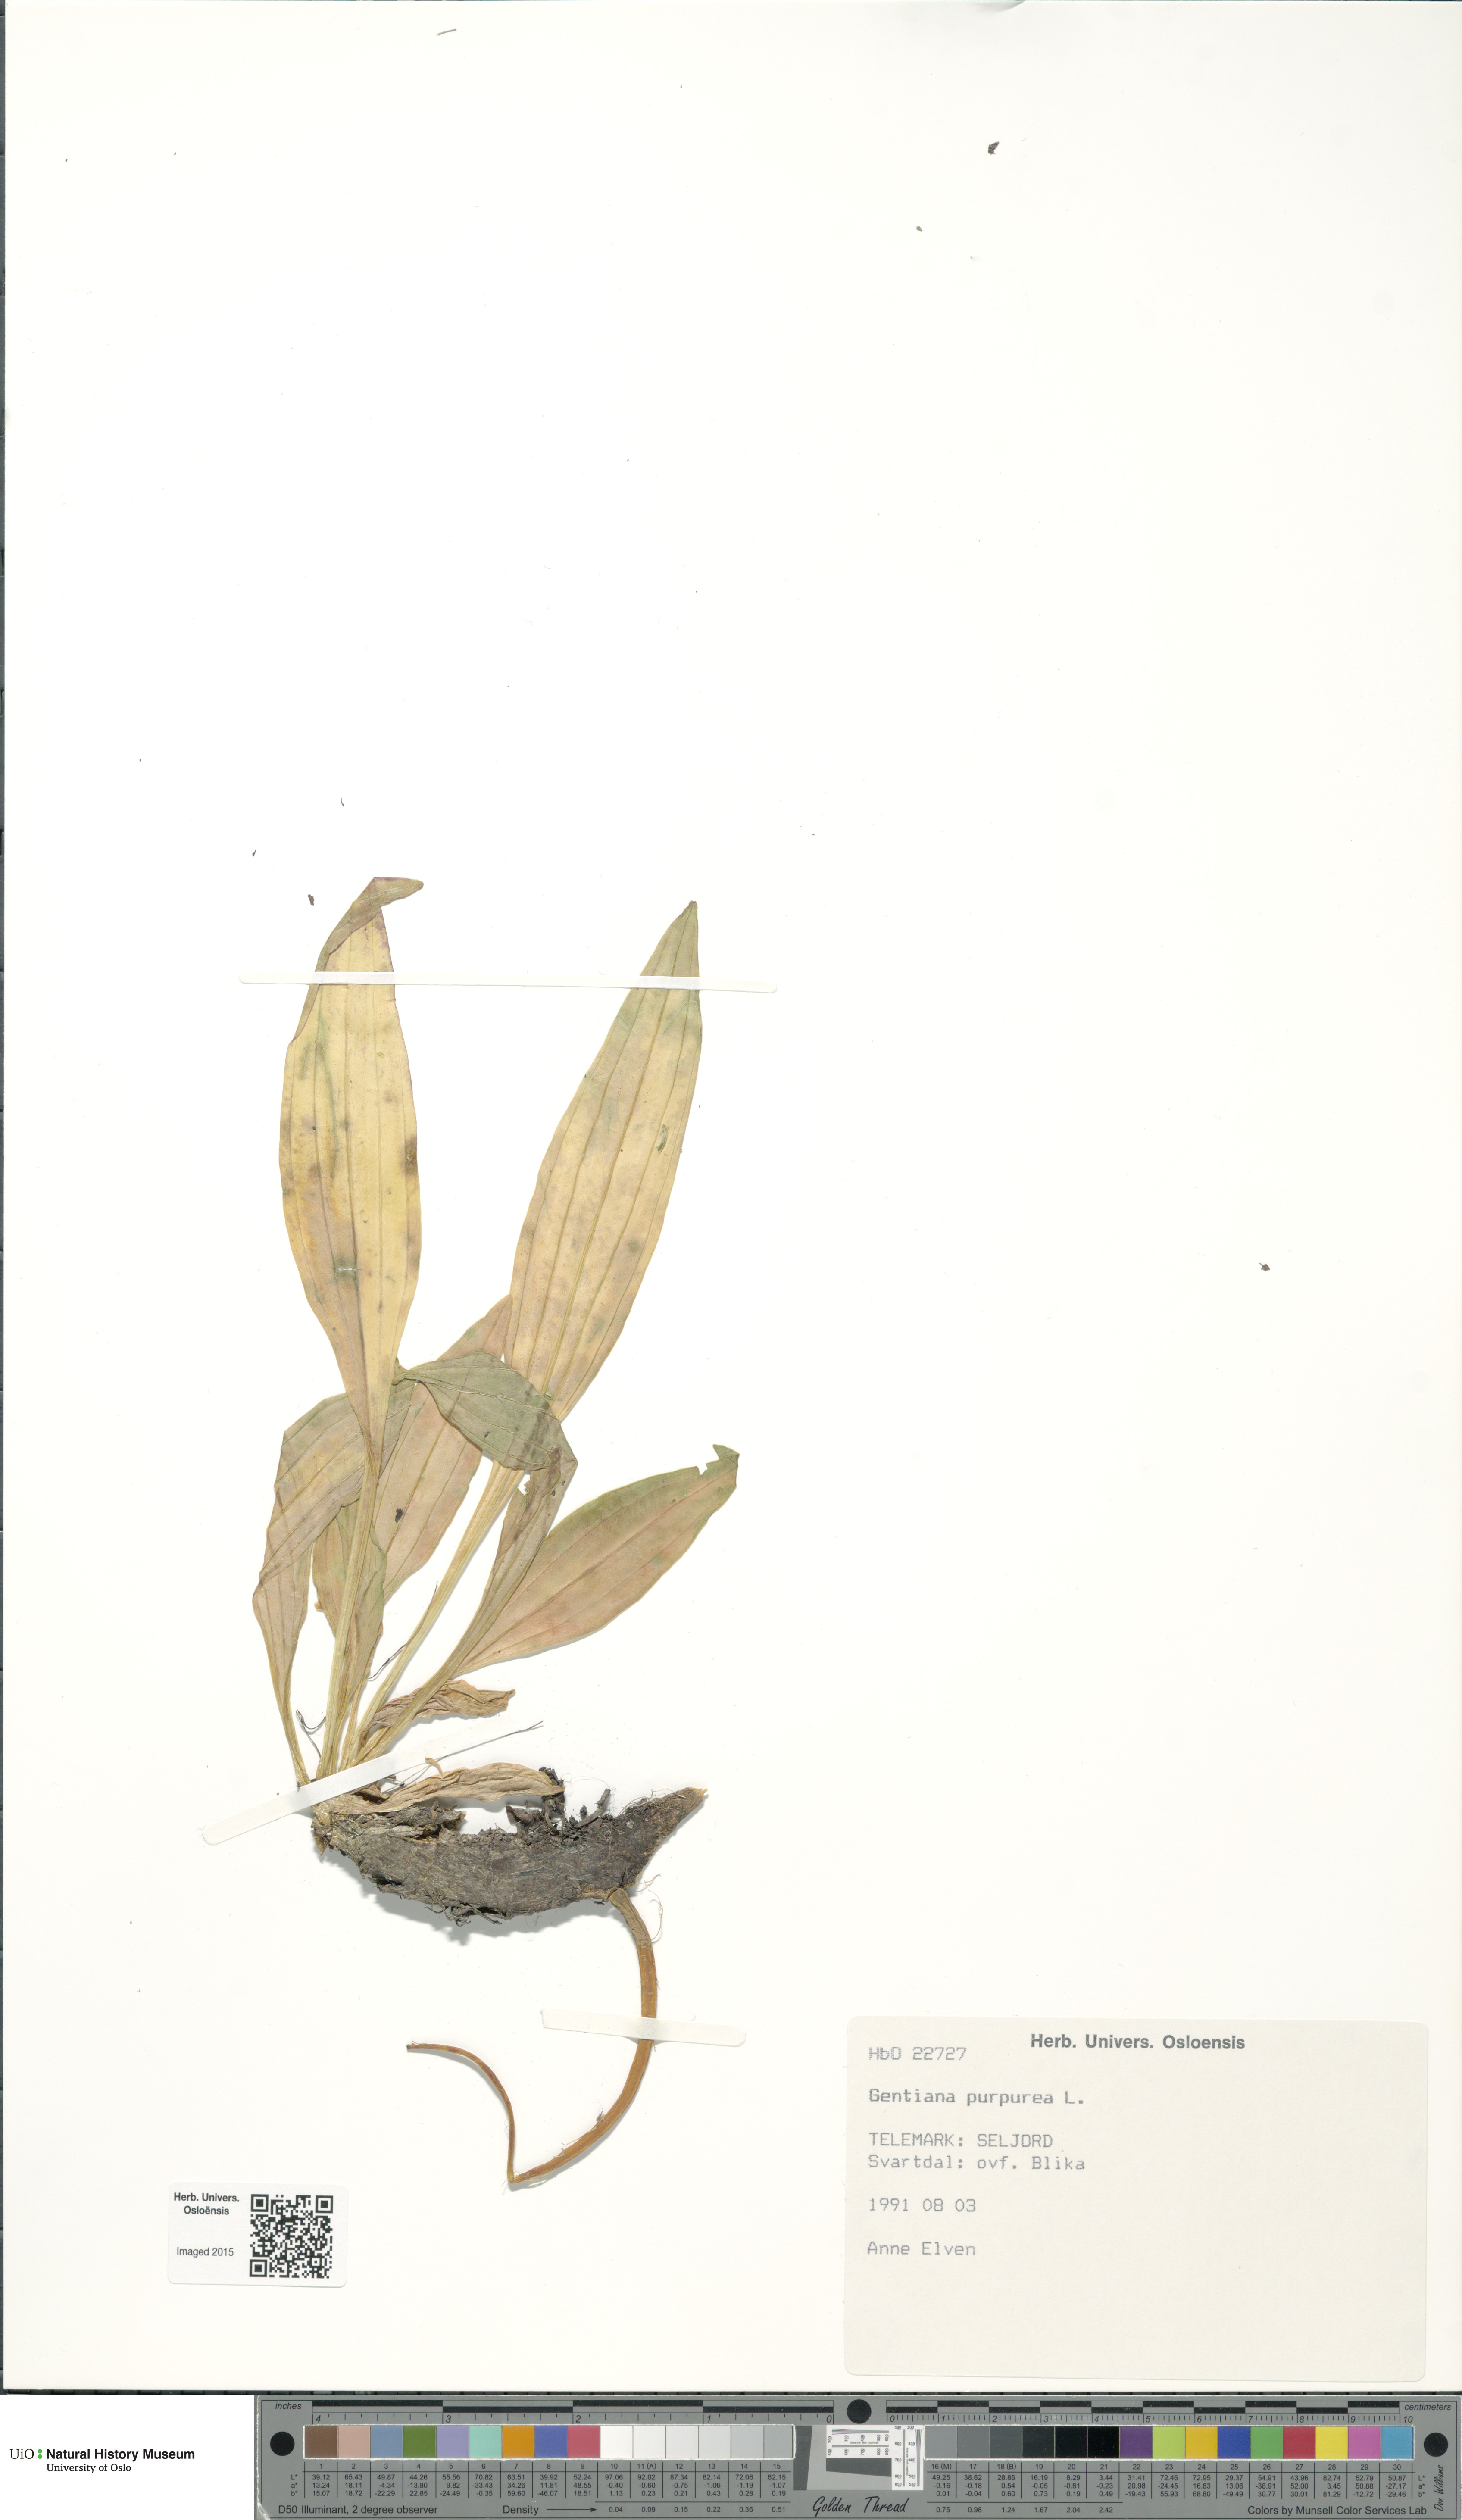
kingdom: Plantae
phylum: Tracheophyta
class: Magnoliopsida
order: Gentianales
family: Gentianaceae
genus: Gentiana
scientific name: Gentiana purpurea
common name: Purple gentian
